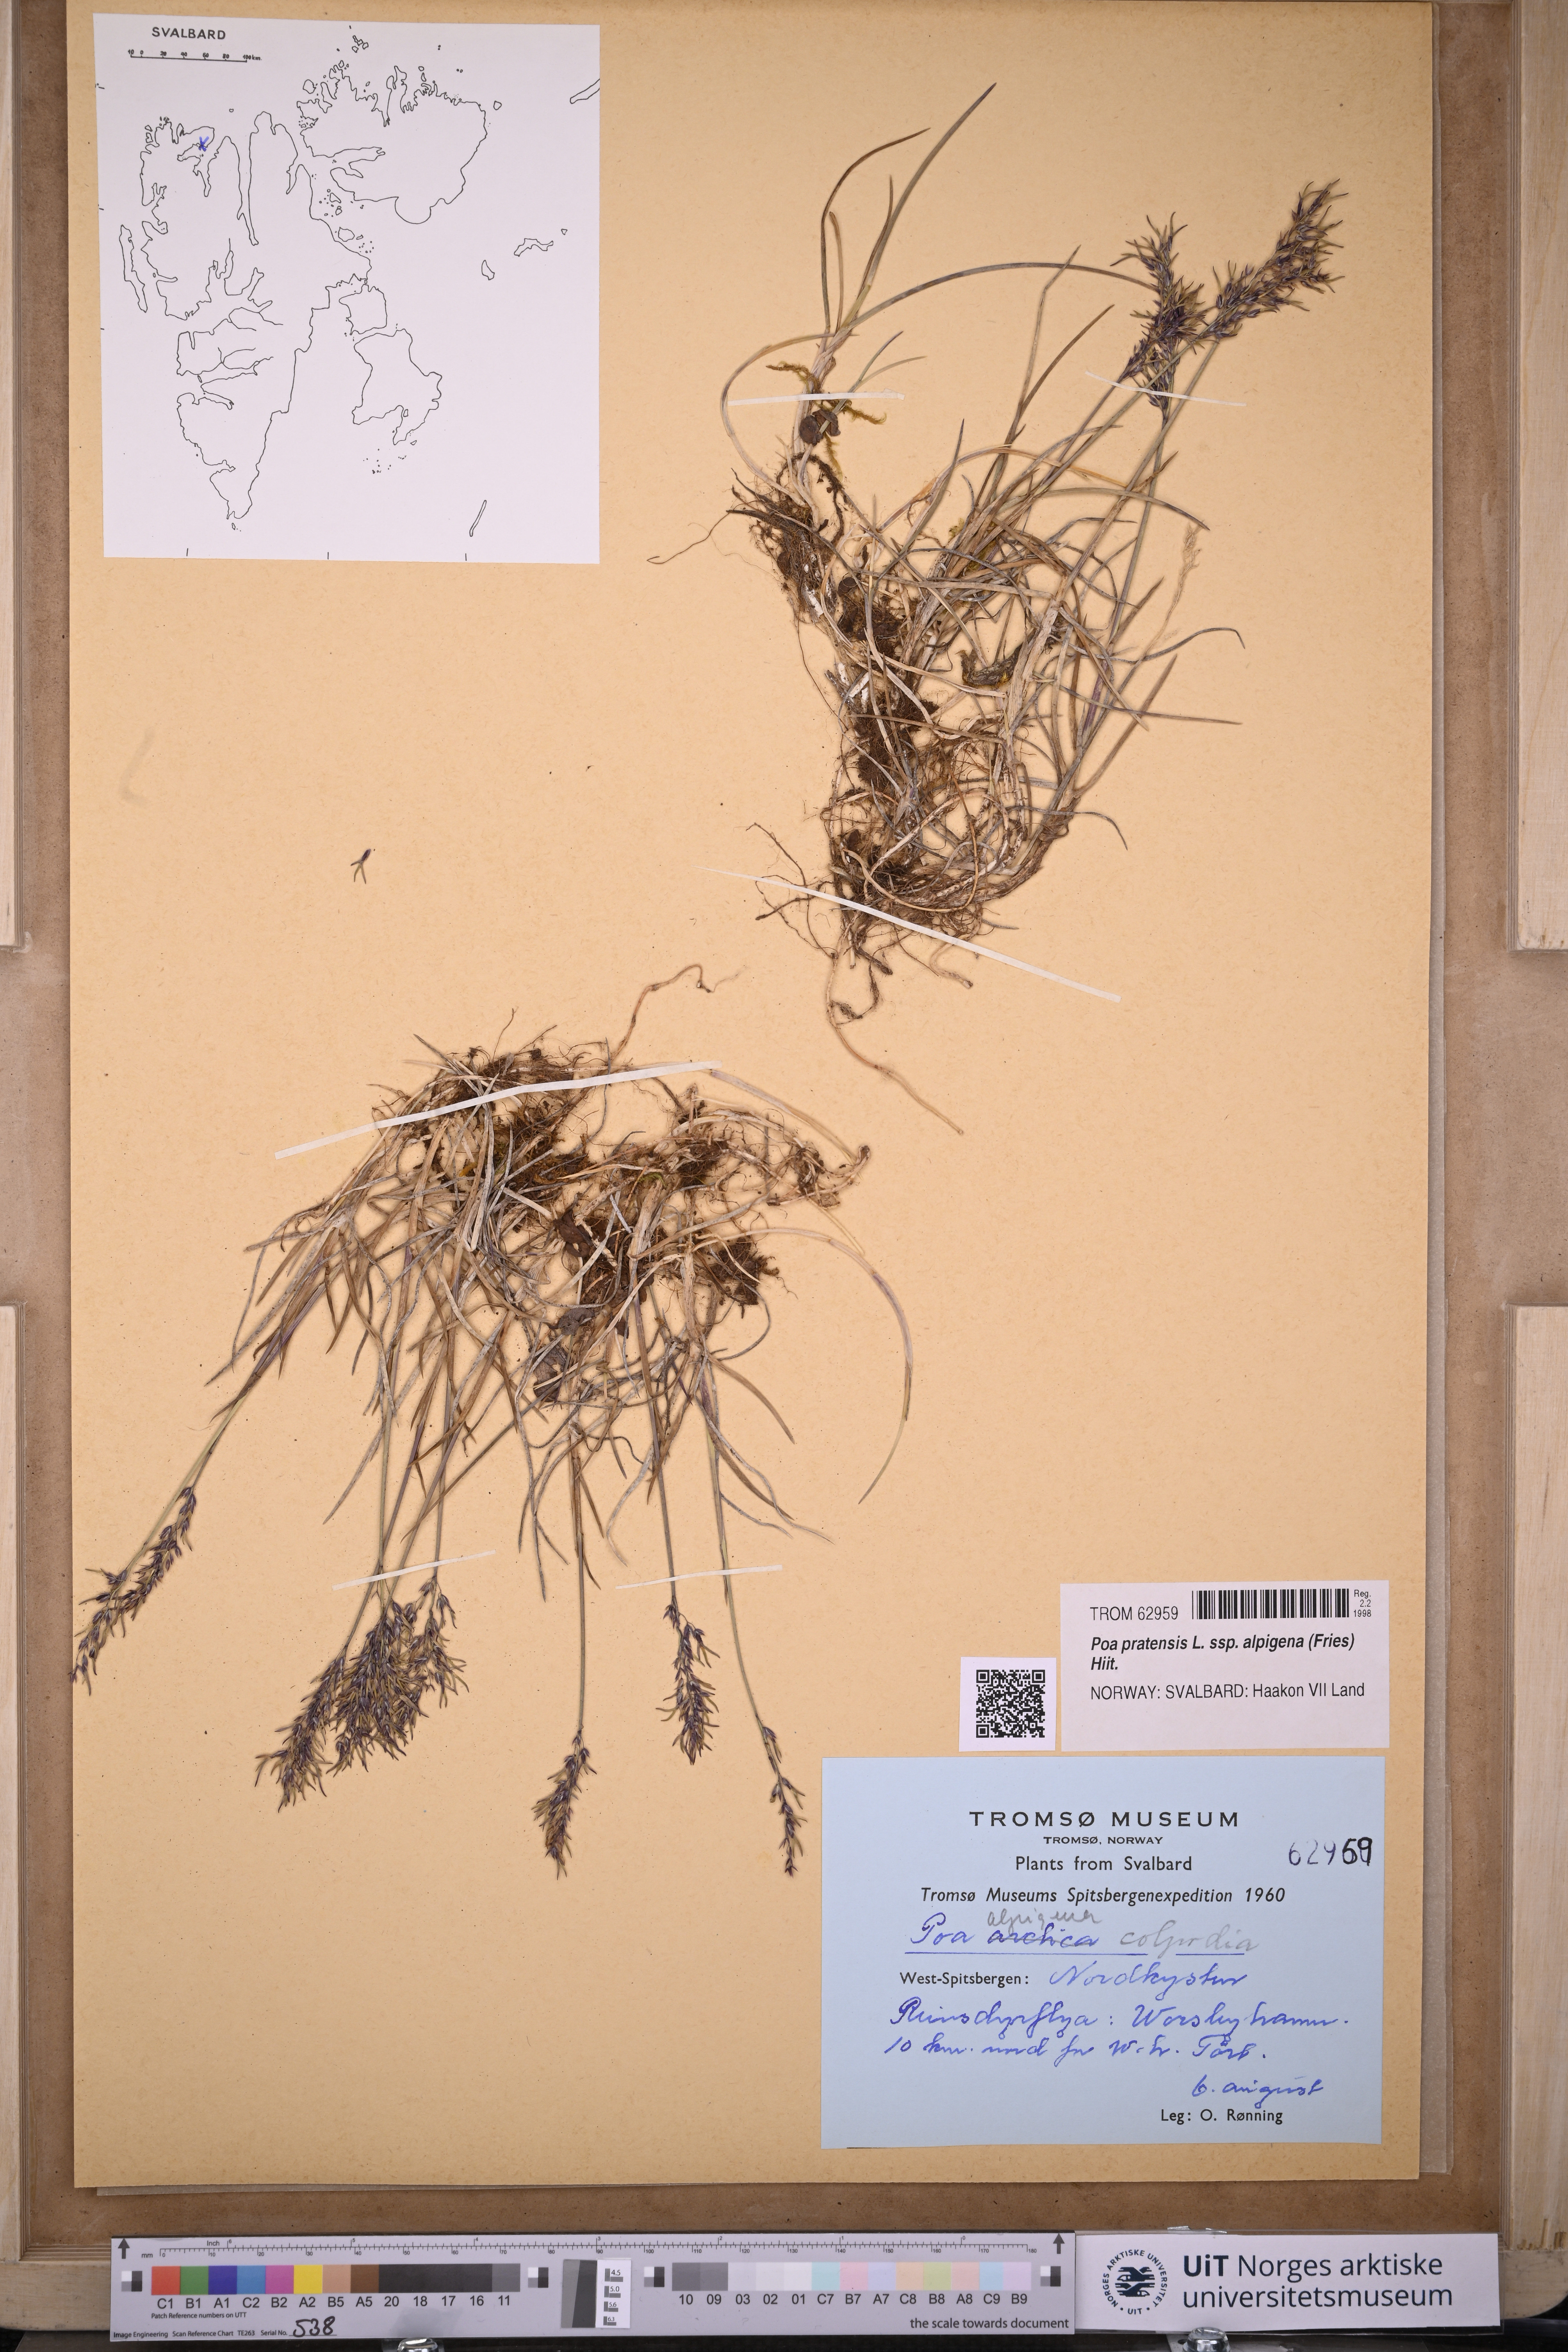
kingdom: Plantae
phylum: Tracheophyta
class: Liliopsida
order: Poales
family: Poaceae
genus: Poa
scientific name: Poa alpigena
